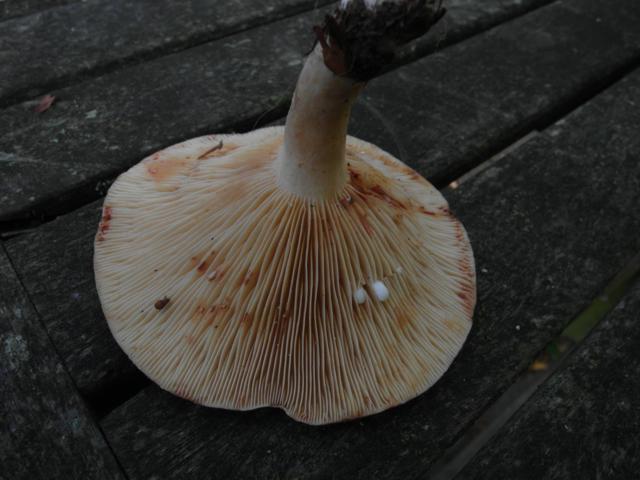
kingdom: Fungi
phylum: Basidiomycota
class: Agaricomycetes
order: Russulales
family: Russulaceae
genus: Lactarius
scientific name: Lactarius pterosporus
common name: vingesporet mælkehat
